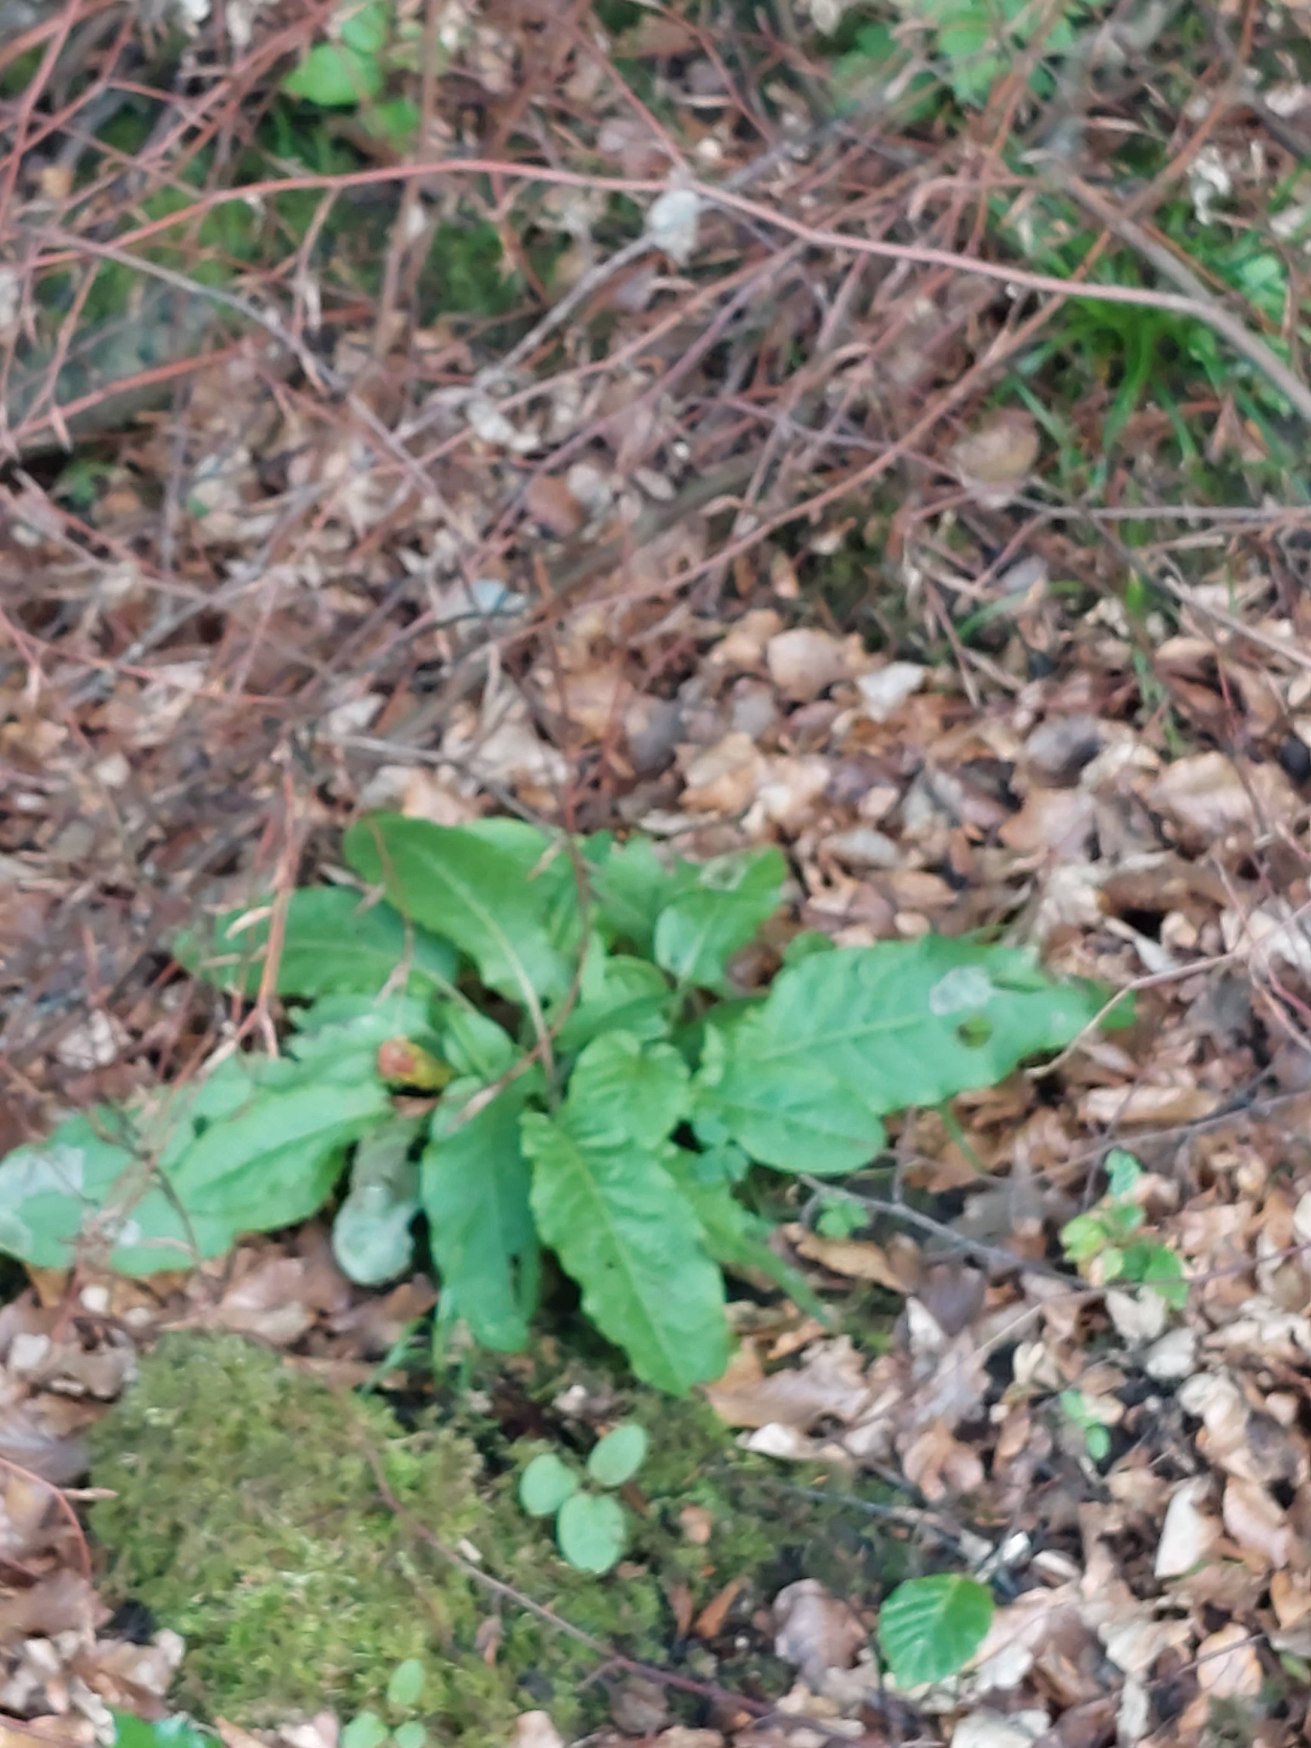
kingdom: Plantae
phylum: Tracheophyta
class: Magnoliopsida
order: Caryophyllales
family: Polygonaceae
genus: Rumex
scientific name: Rumex
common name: Skræppeslægten
